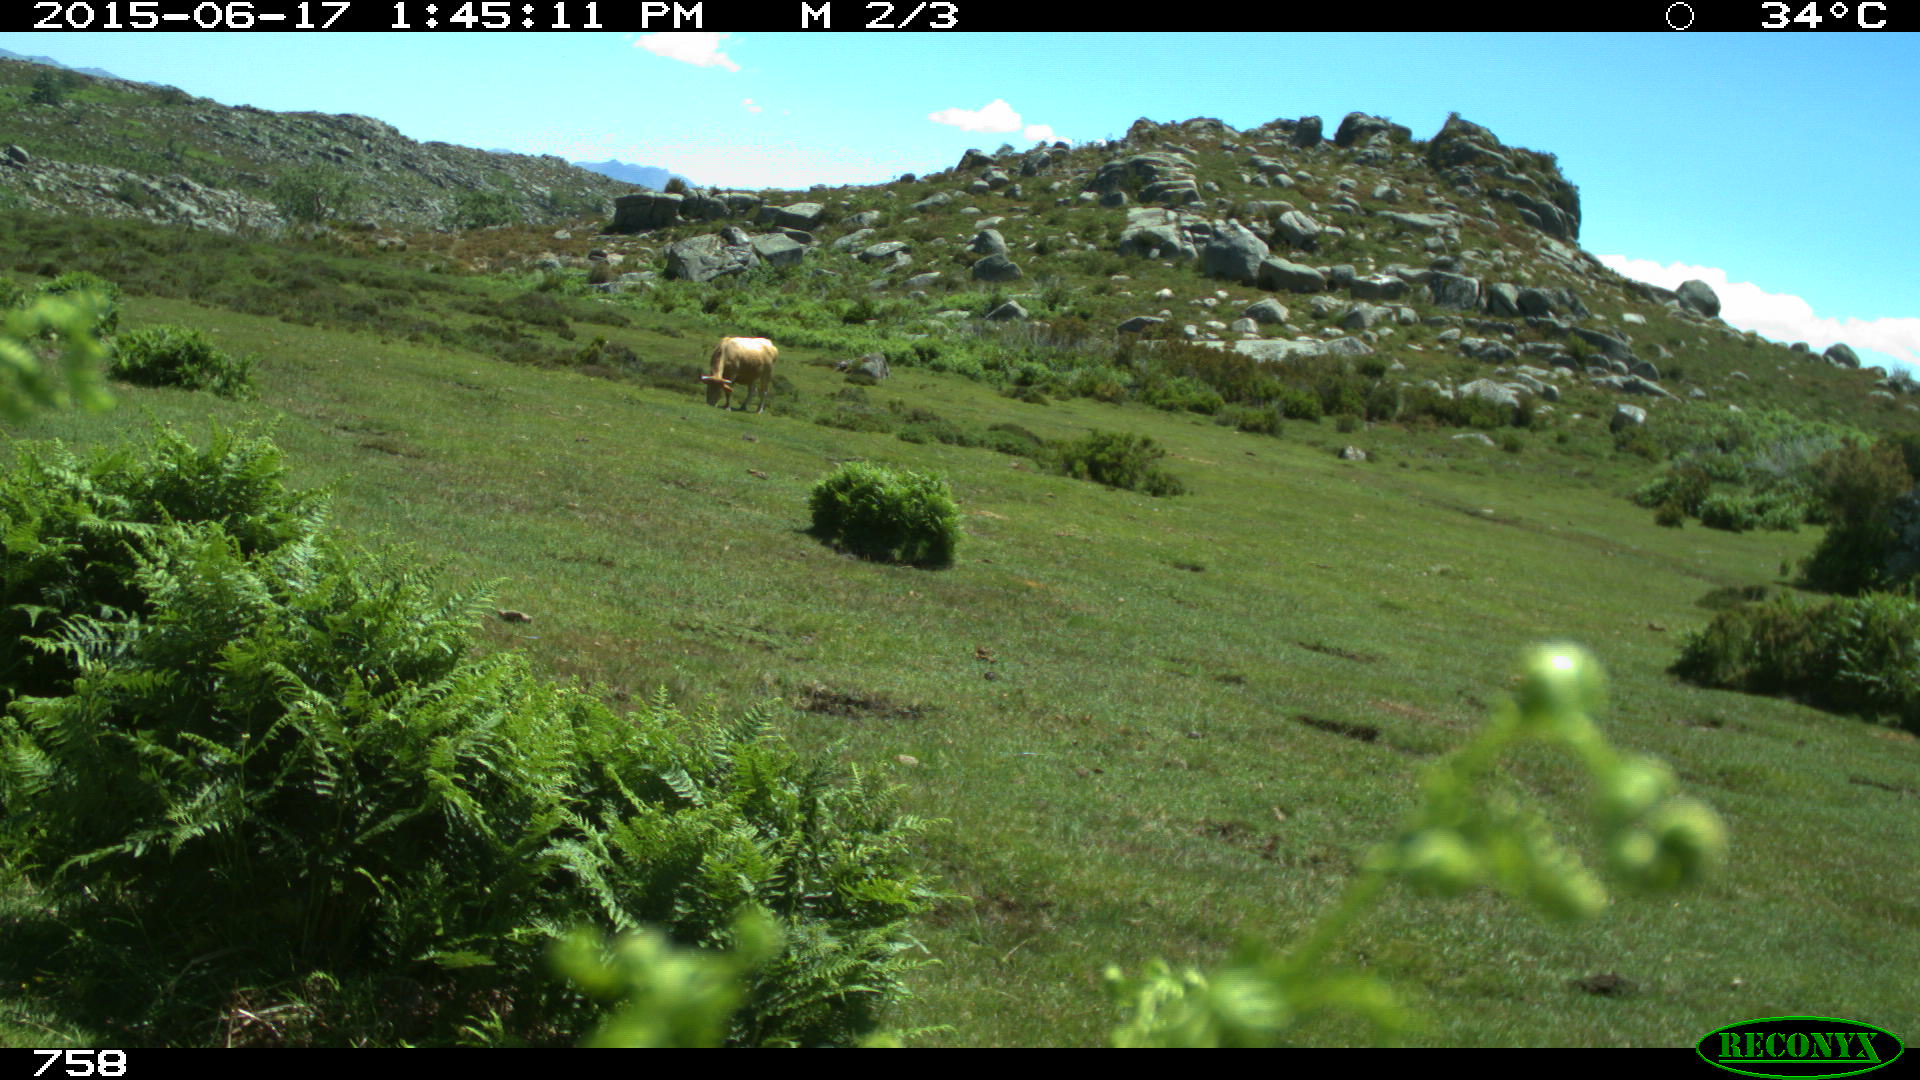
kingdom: Animalia
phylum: Chordata
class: Mammalia
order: Artiodactyla
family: Bovidae
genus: Bos
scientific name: Bos taurus
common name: Domesticated cattle
